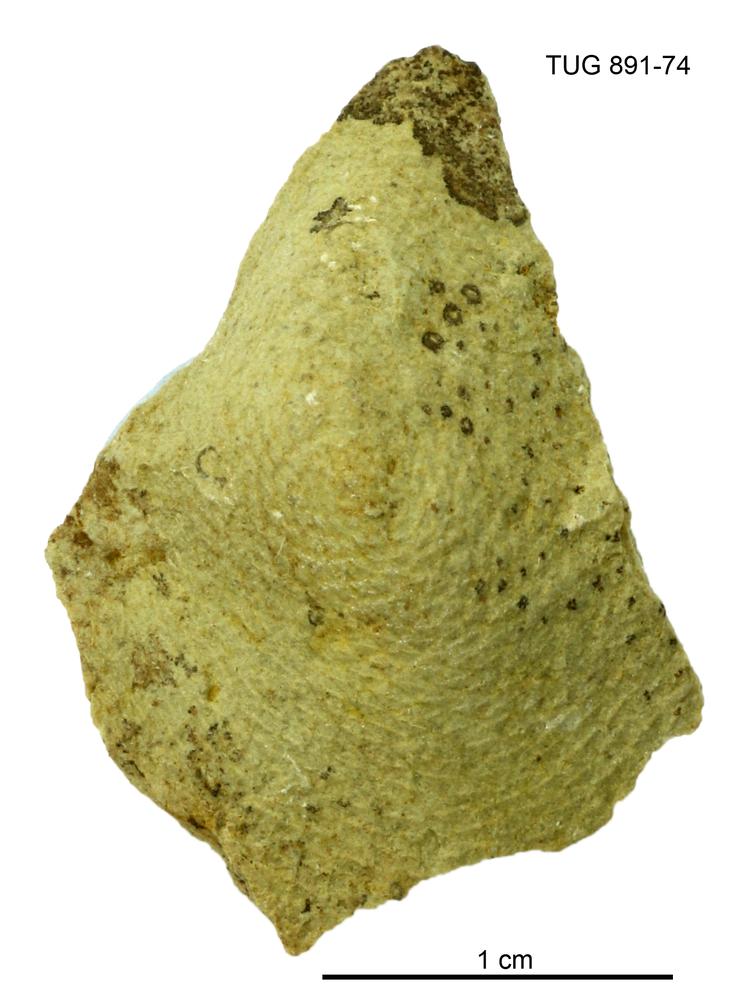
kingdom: Plantae
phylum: Chlorophyta
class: Chlorophyceae
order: Receptaculitales
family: Receptaculitaceae
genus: Receptaculites
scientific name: Receptaculites
